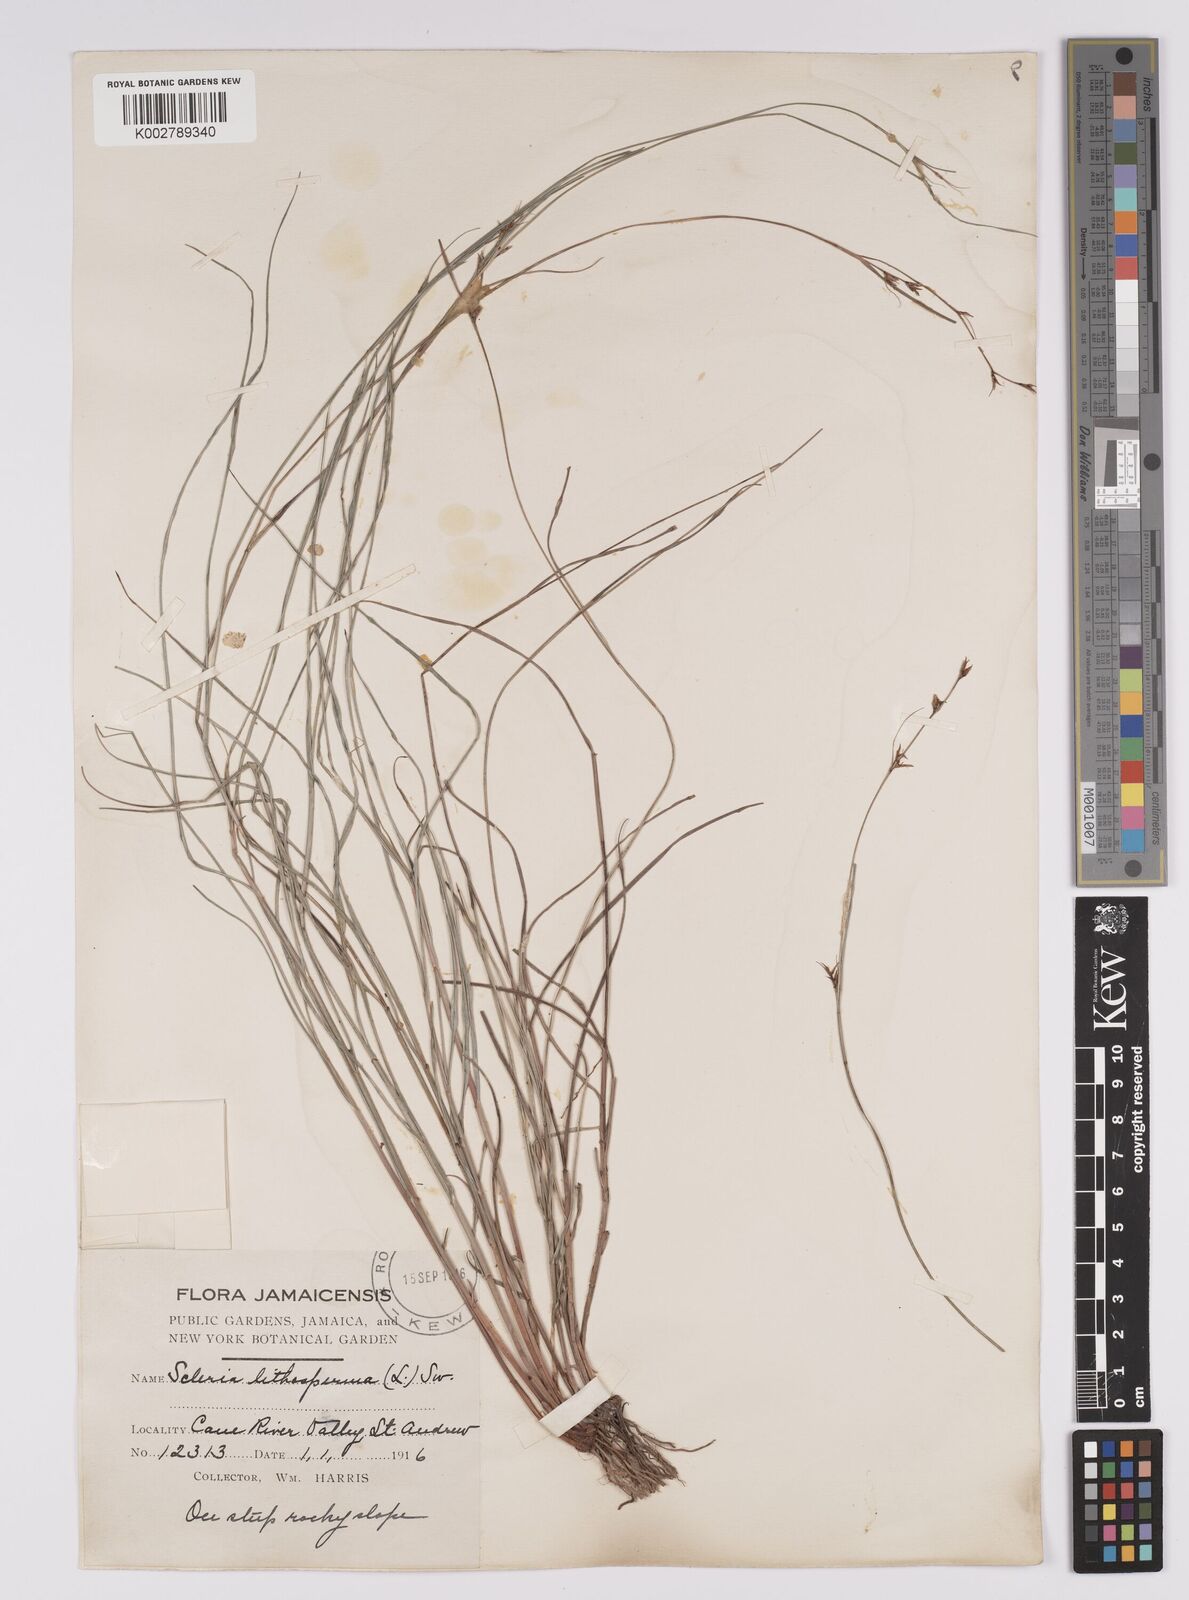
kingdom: Plantae
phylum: Tracheophyta
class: Liliopsida
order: Poales
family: Cyperaceae
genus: Scleria
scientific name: Scleria lithosperma
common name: Florida keys nut-rush
